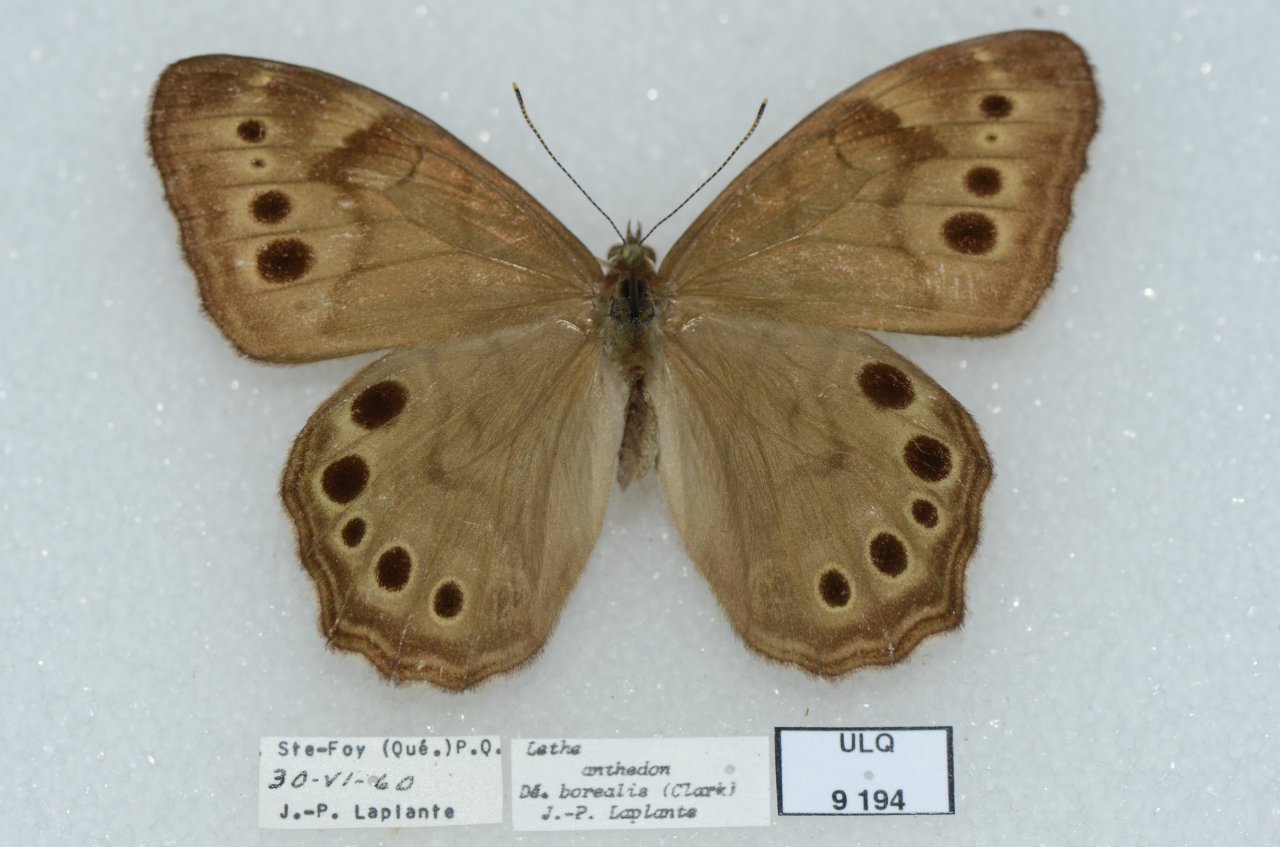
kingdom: Animalia
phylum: Arthropoda
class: Insecta
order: Lepidoptera
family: Nymphalidae
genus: Lethe
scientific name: Lethe anthedon
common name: Northern Pearly-Eye
